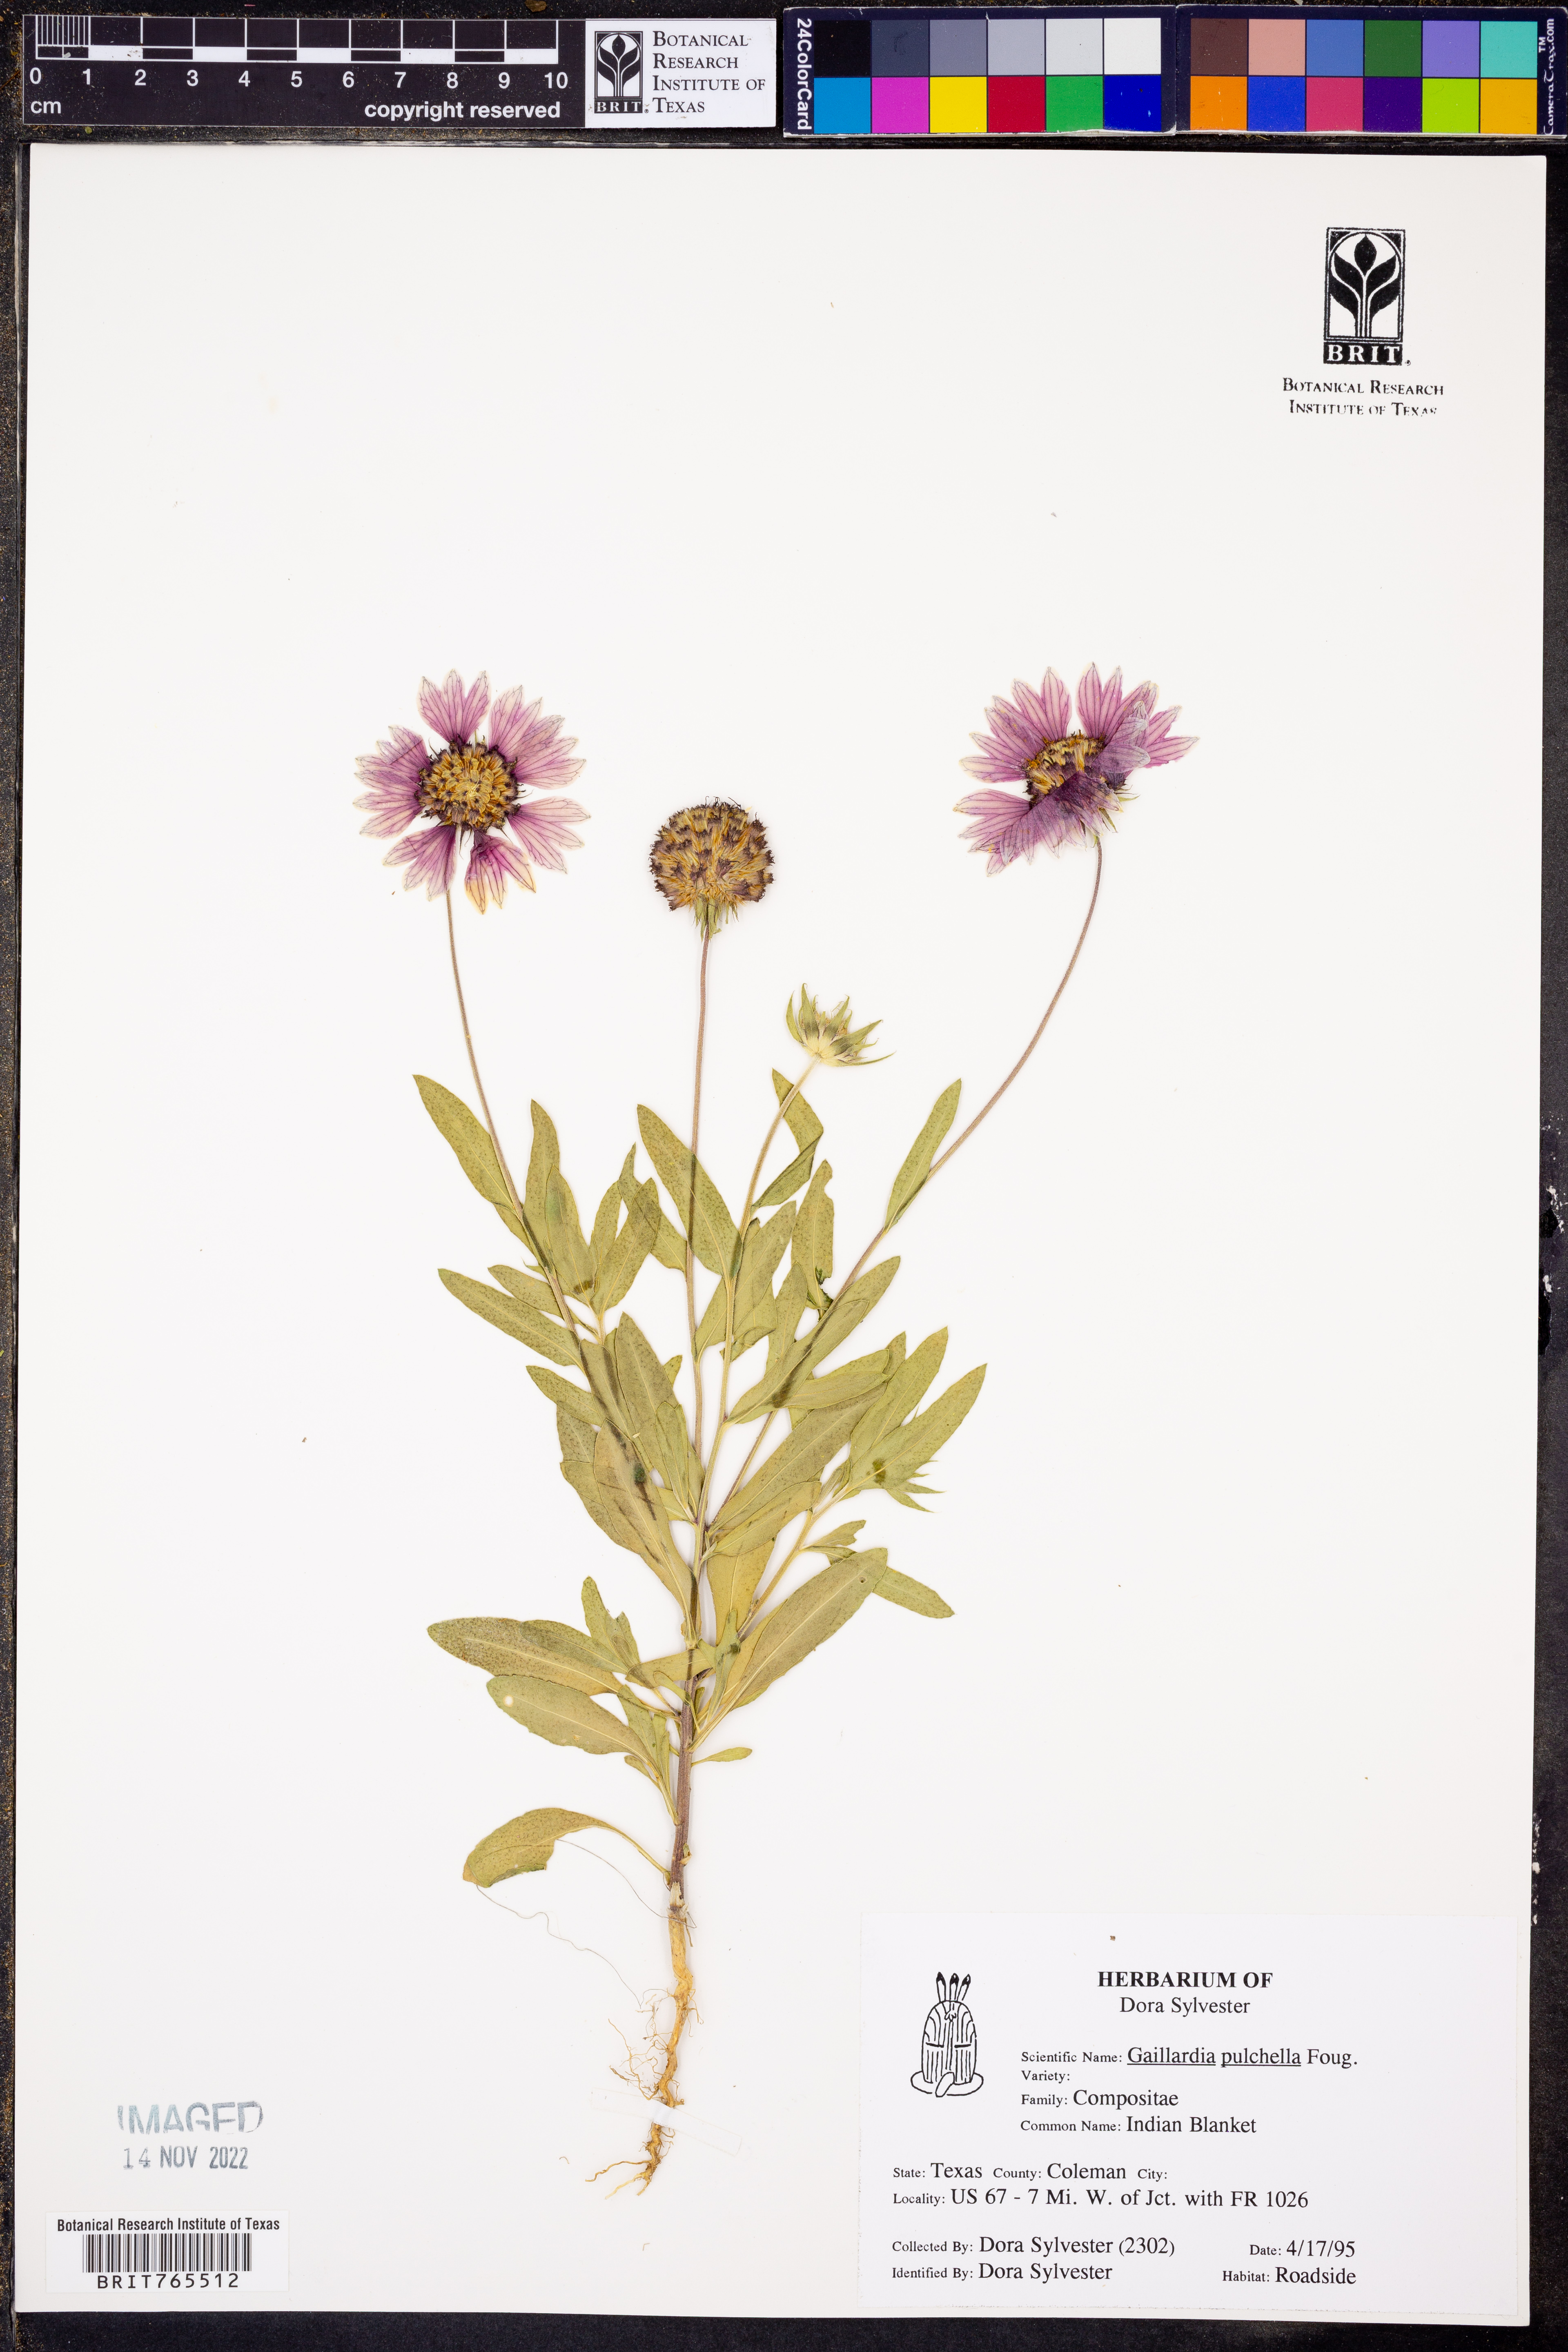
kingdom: Plantae
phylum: Tracheophyta
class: Magnoliopsida
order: Asterales
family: Asteraceae
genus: Gaillardia
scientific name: Gaillardia pulchella
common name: Firewheel
